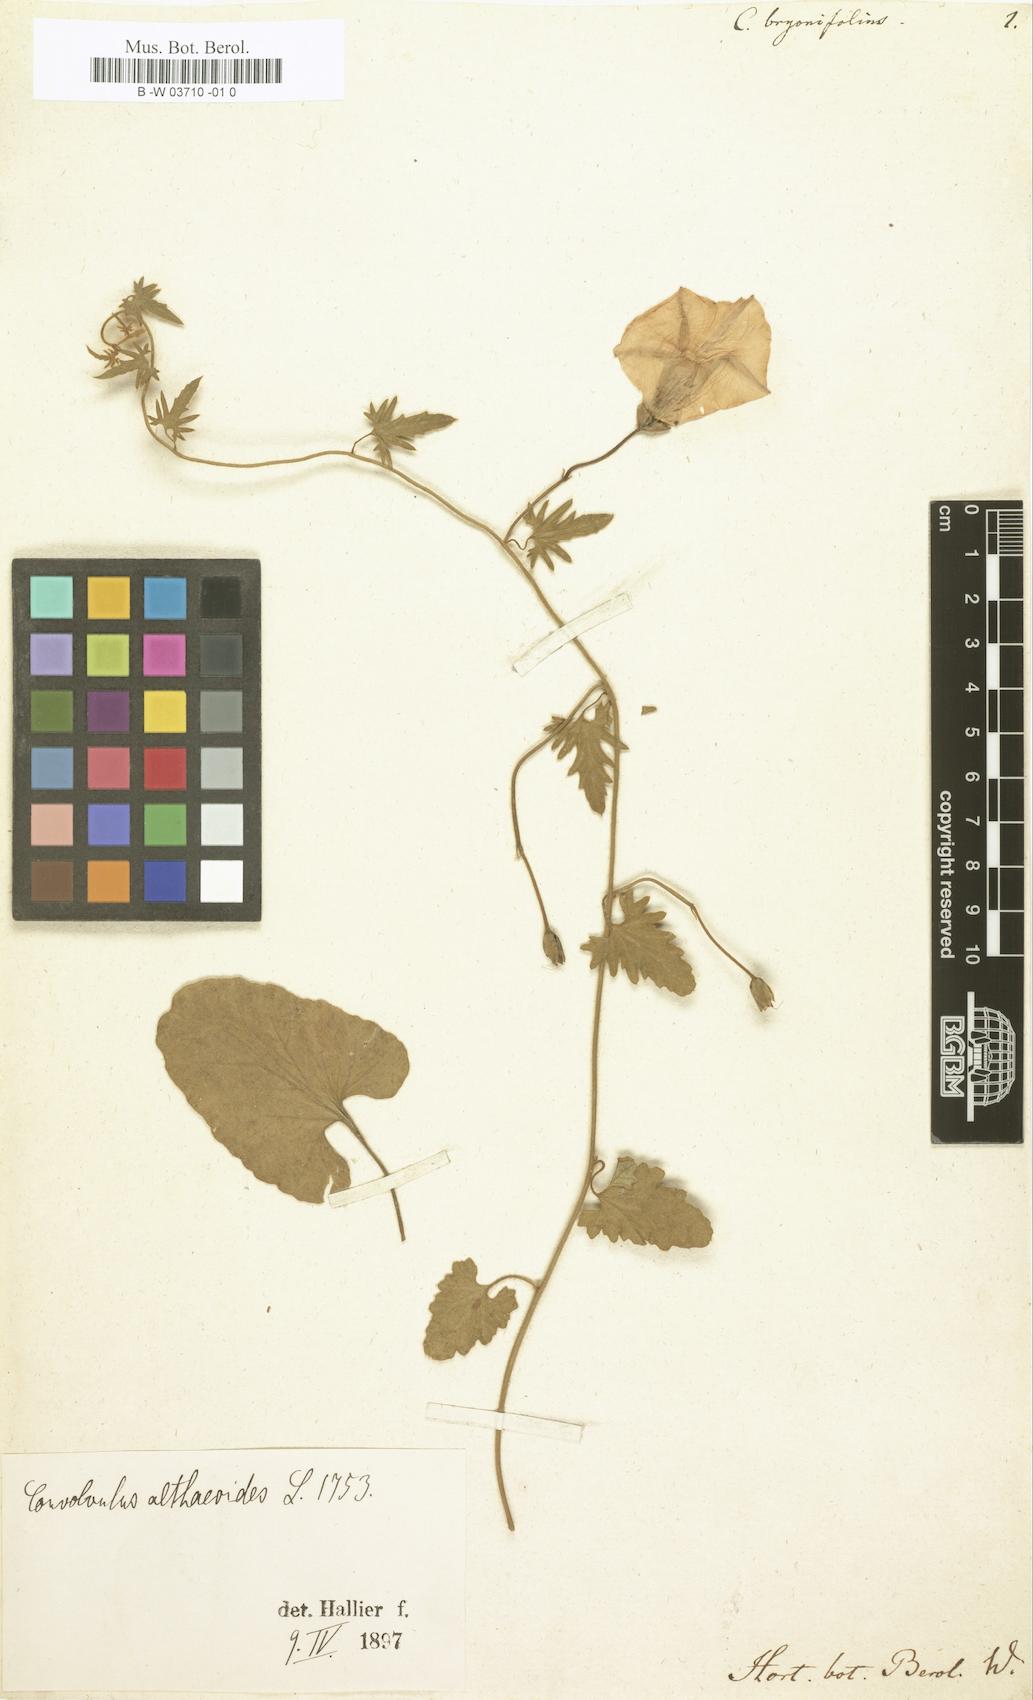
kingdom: Plantae
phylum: Tracheophyta
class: Magnoliopsida
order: Solanales
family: Convolvulaceae
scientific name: Convolvulaceae
